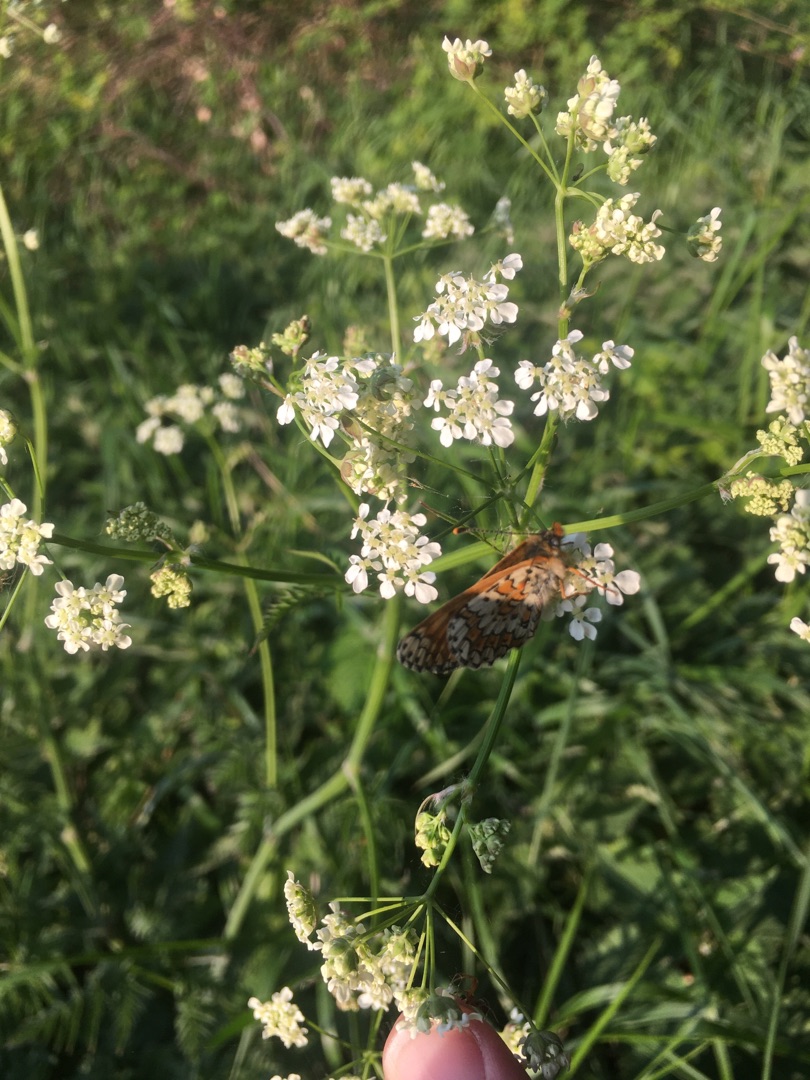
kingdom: Animalia
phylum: Arthropoda
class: Insecta
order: Lepidoptera
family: Nymphalidae
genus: Melitaea
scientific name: Melitaea cinxia
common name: Okkergul pletvinge
